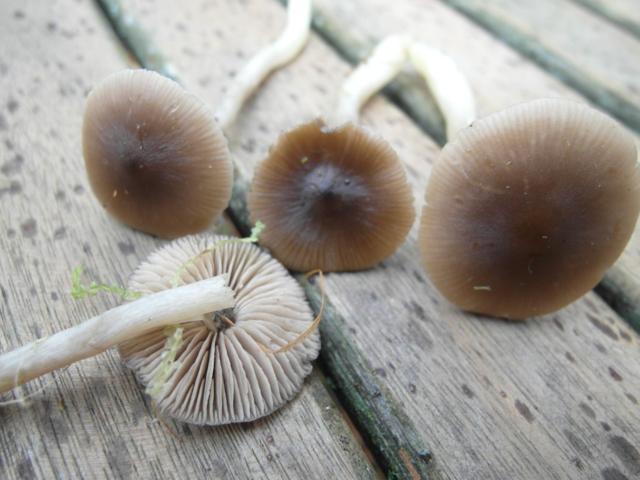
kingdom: Fungi
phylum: Basidiomycota
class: Agaricomycetes
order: Agaricales
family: Entolomataceae
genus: Entocybe
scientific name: Entocybe turbida
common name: plantage-rødblad
